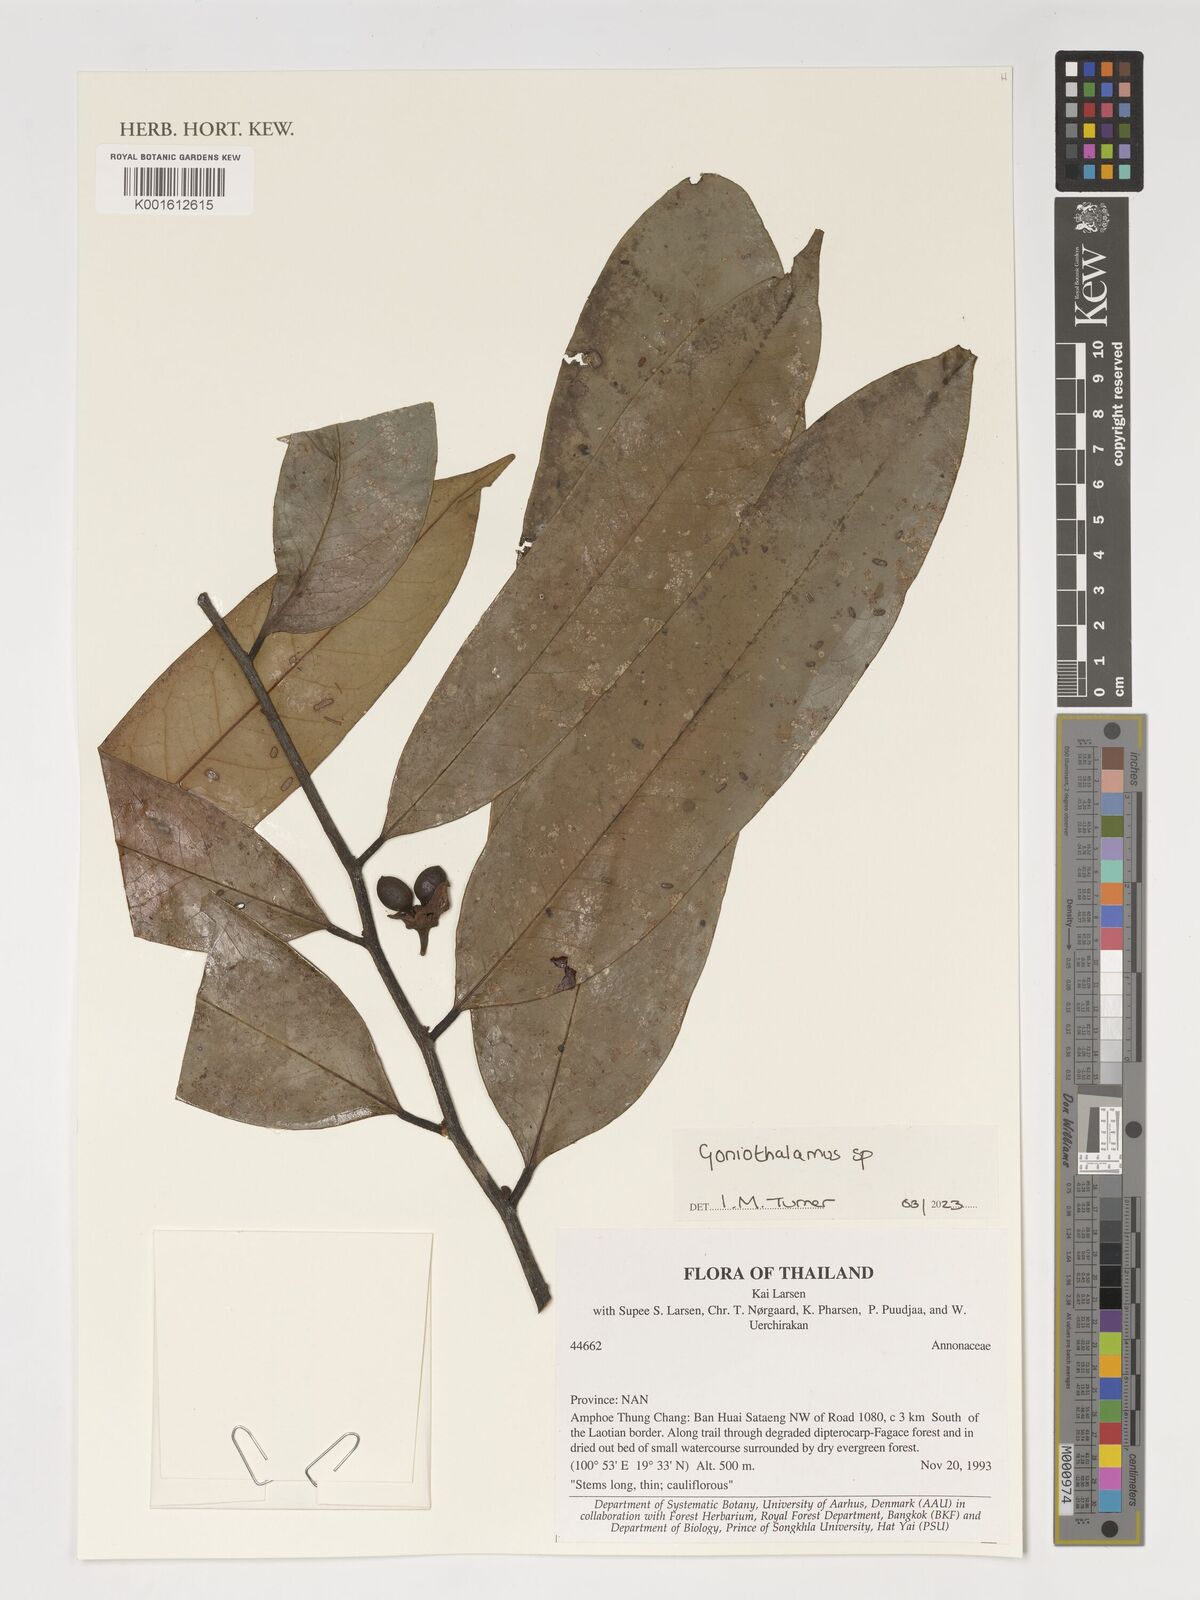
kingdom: Plantae
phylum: Tracheophyta
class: Magnoliopsida
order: Magnoliales
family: Annonaceae
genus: Goniothalamus
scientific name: Goniothalamus
